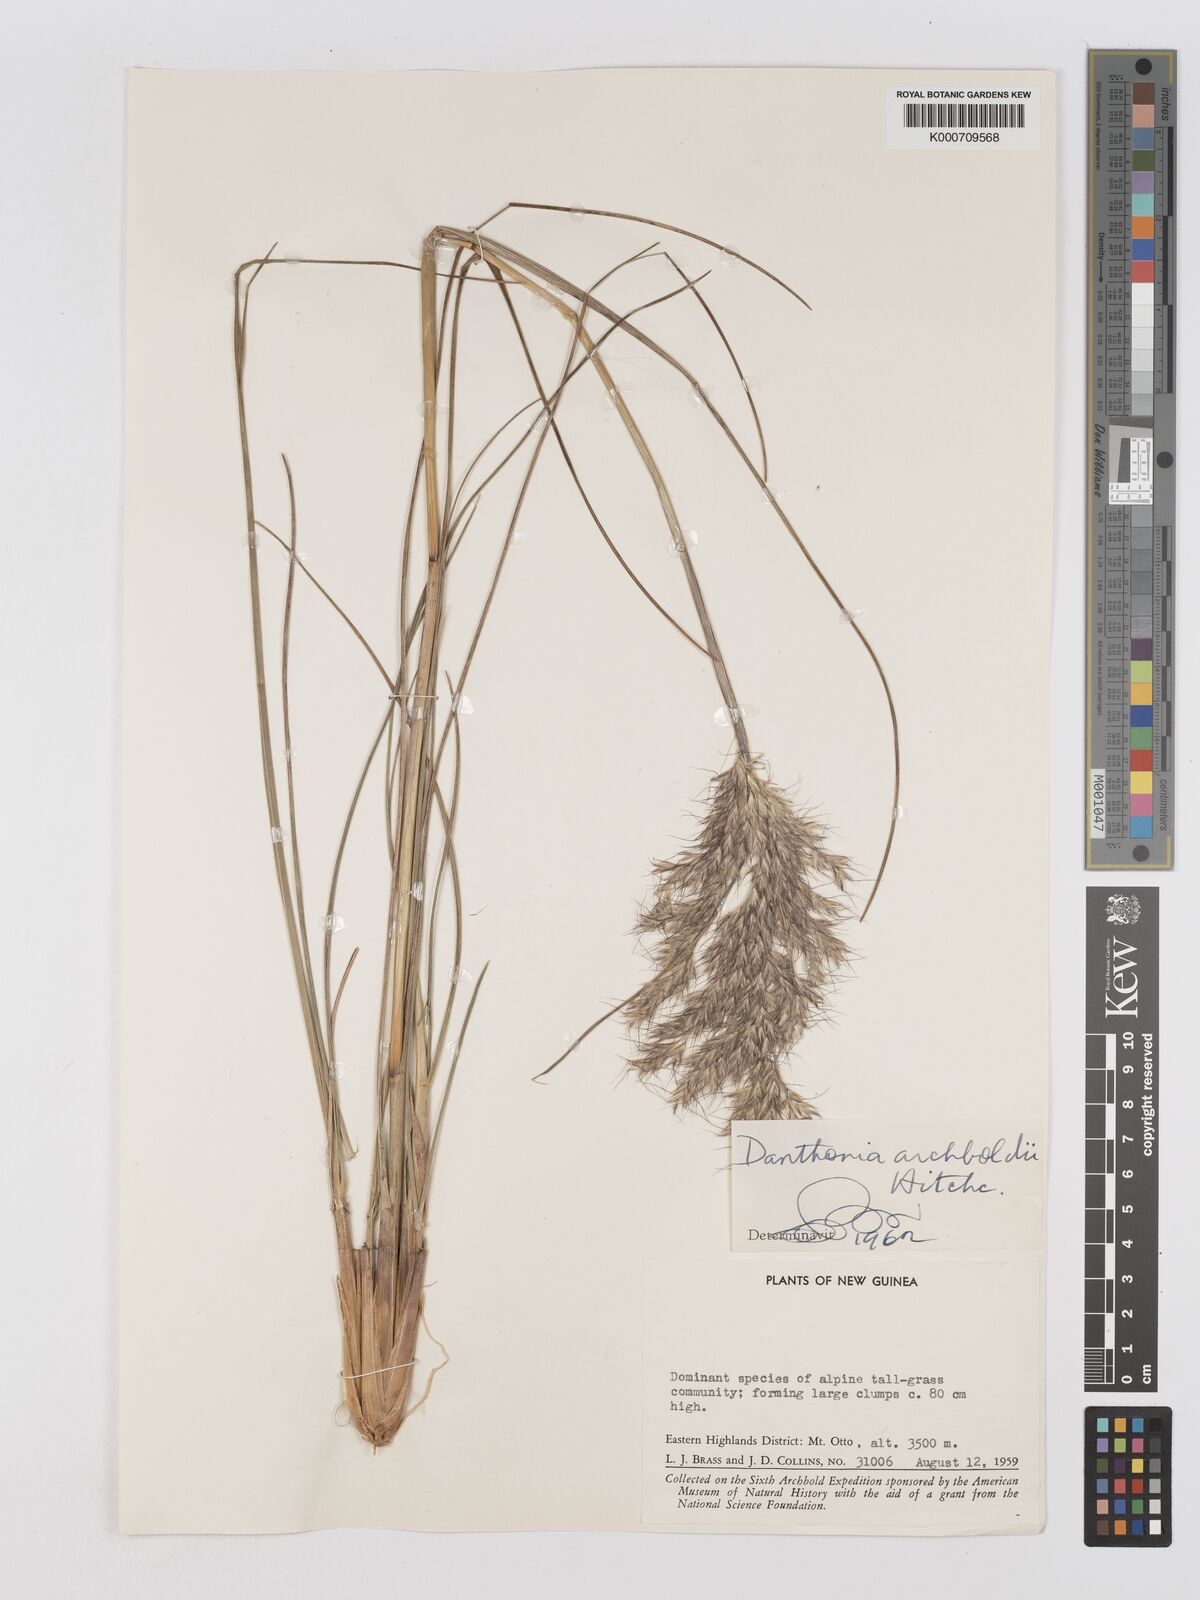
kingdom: Plantae
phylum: Tracheophyta
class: Liliopsida
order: Poales
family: Poaceae
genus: Chimaerochloa
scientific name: Chimaerochloa archboldii
